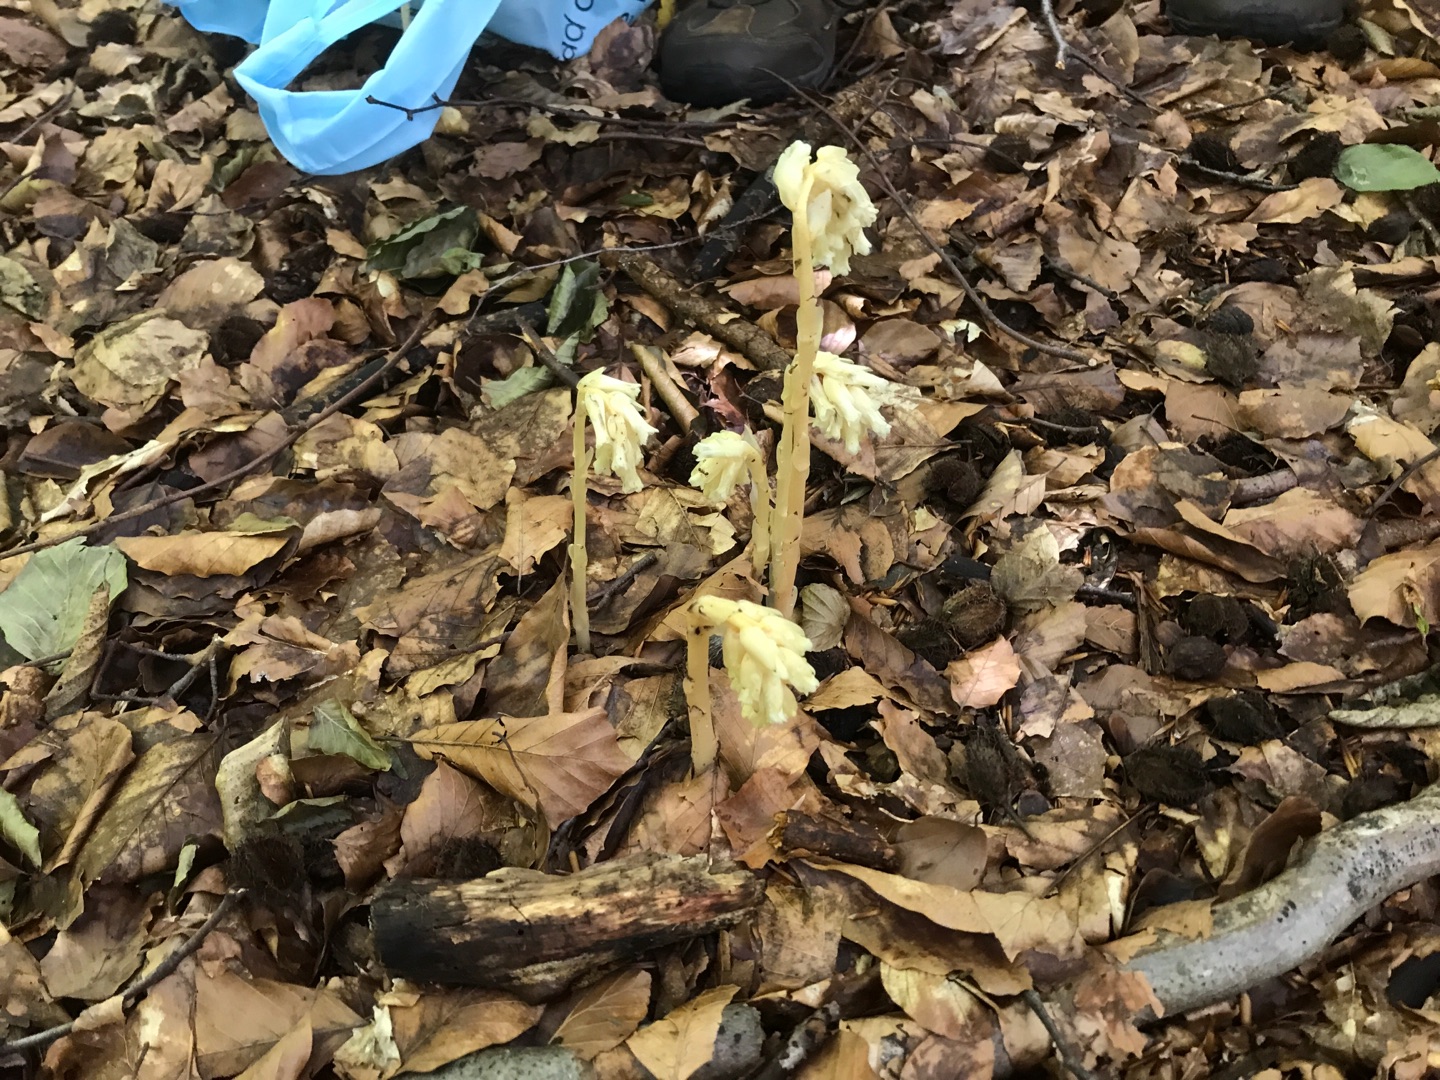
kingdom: Plantae
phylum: Tracheophyta
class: Magnoliopsida
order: Ericales
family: Ericaceae
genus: Hypopitys
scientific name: Hypopitys monotropa
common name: Snylterod
